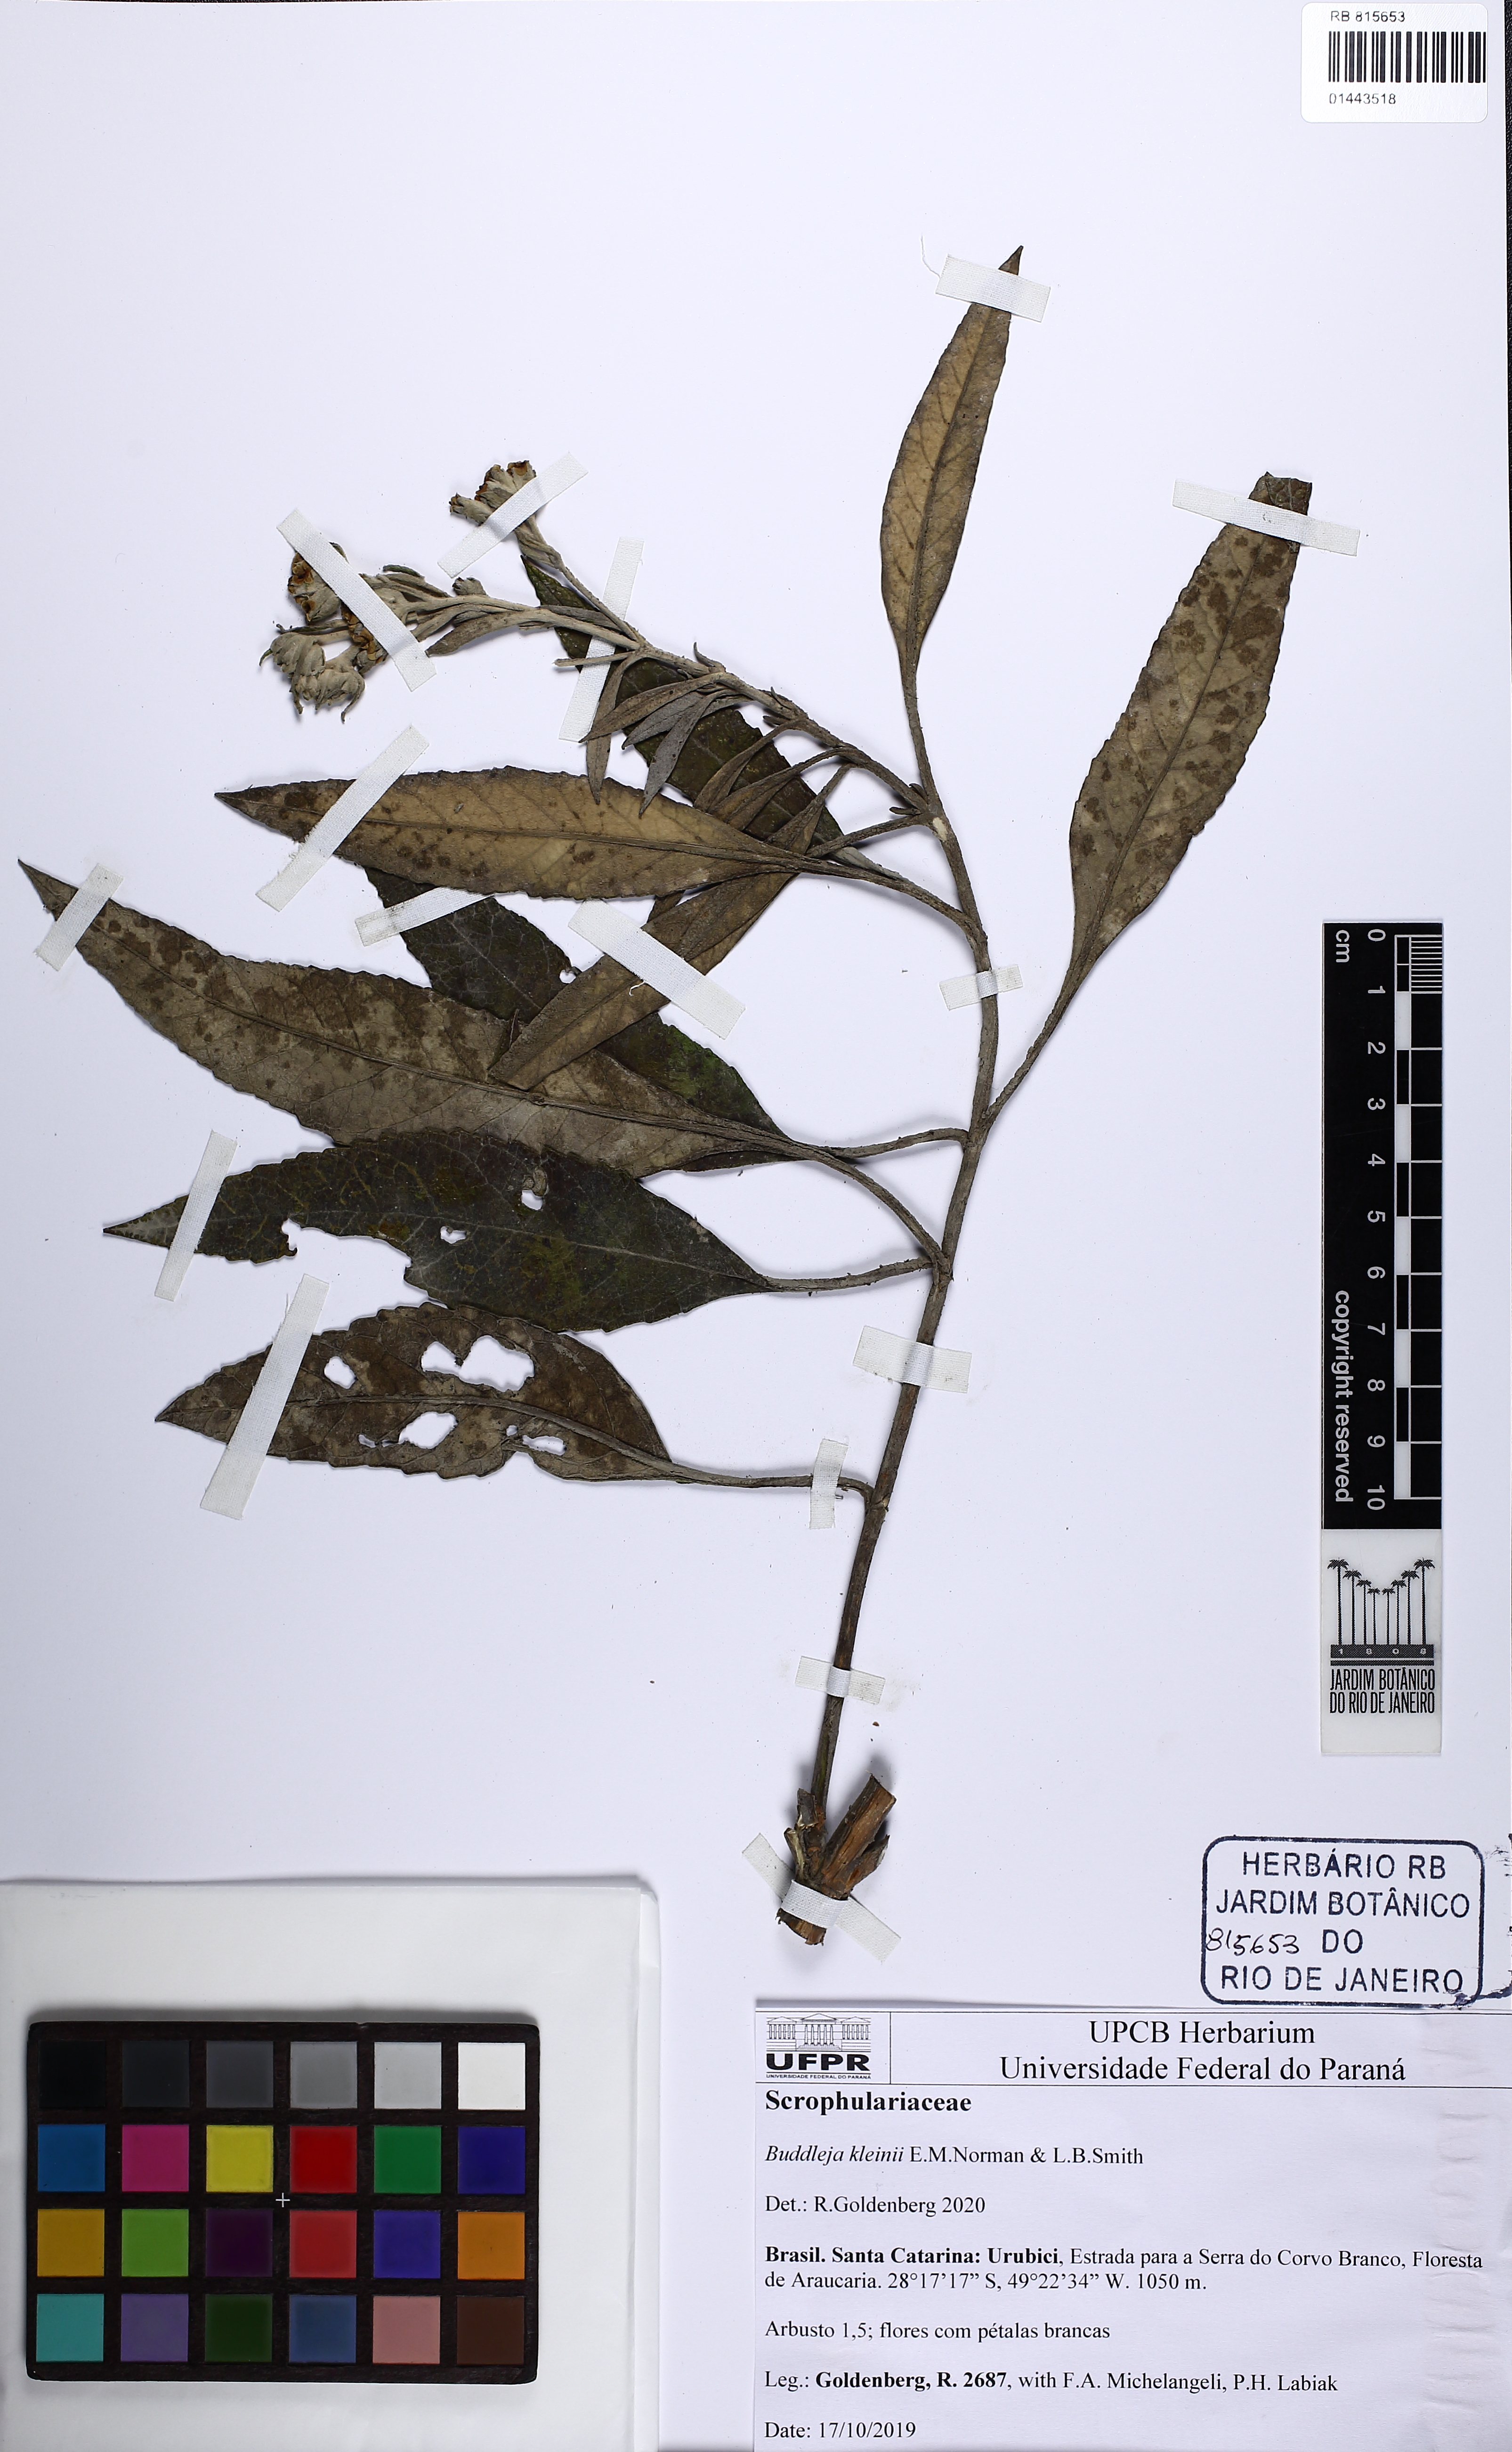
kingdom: Plantae
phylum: Tracheophyta
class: Magnoliopsida
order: Lamiales
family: Scrophulariaceae
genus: Buddleja
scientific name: Buddleja kleinii
